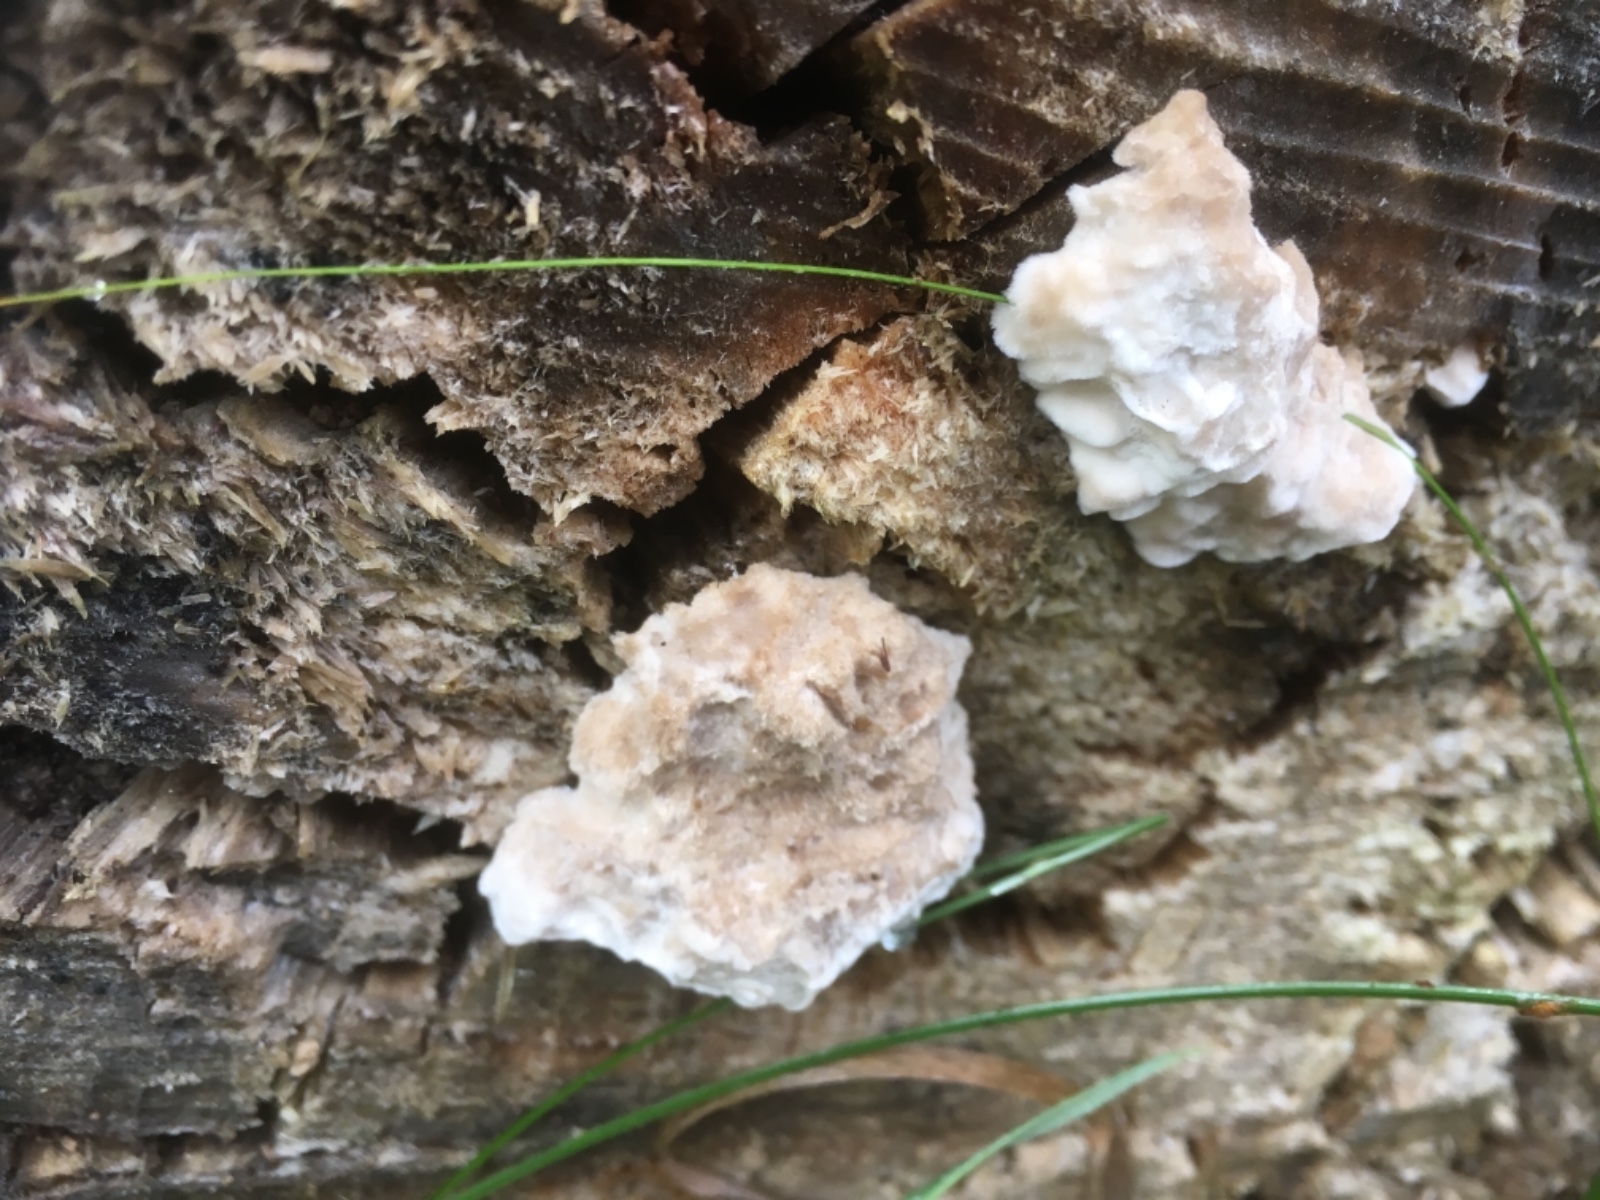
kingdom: Fungi
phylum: Basidiomycota
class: Agaricomycetes
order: Polyporales
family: Dacryobolaceae
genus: Postia
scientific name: Postia
